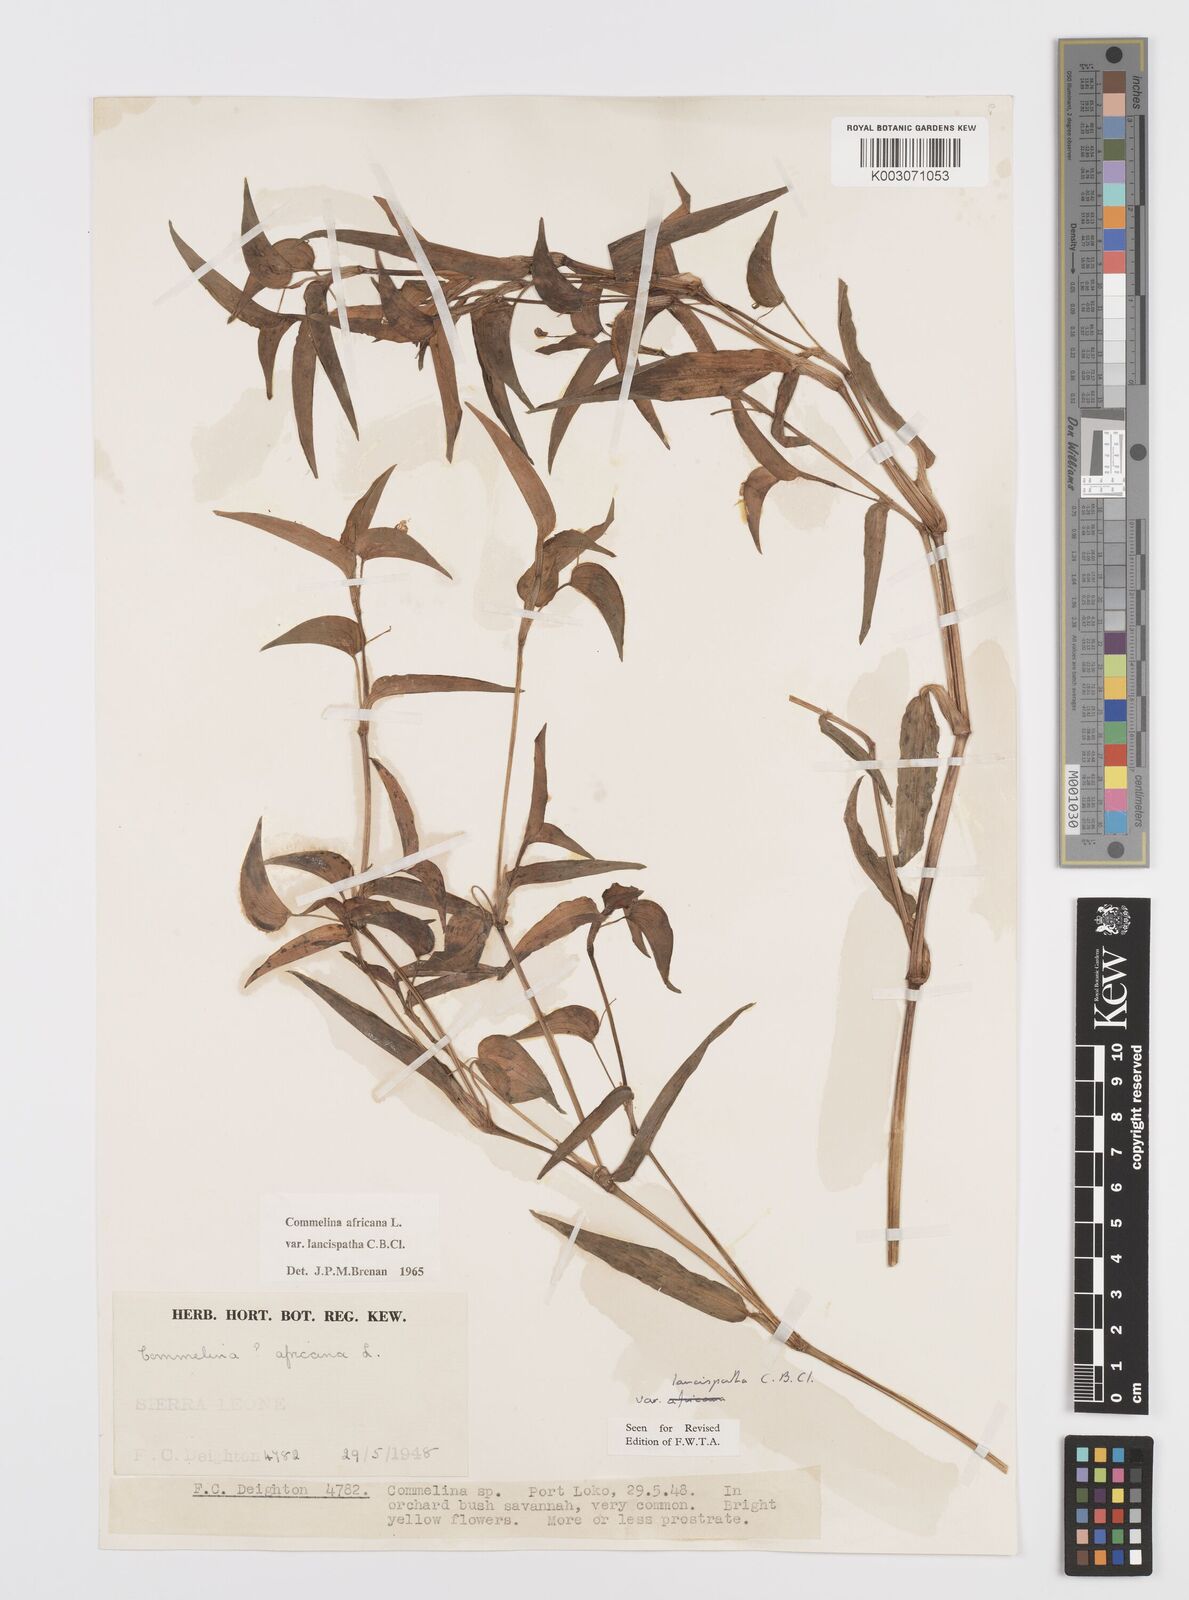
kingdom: Plantae
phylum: Tracheophyta
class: Liliopsida
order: Commelinales
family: Commelinaceae
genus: Commelina
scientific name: Commelina africana
